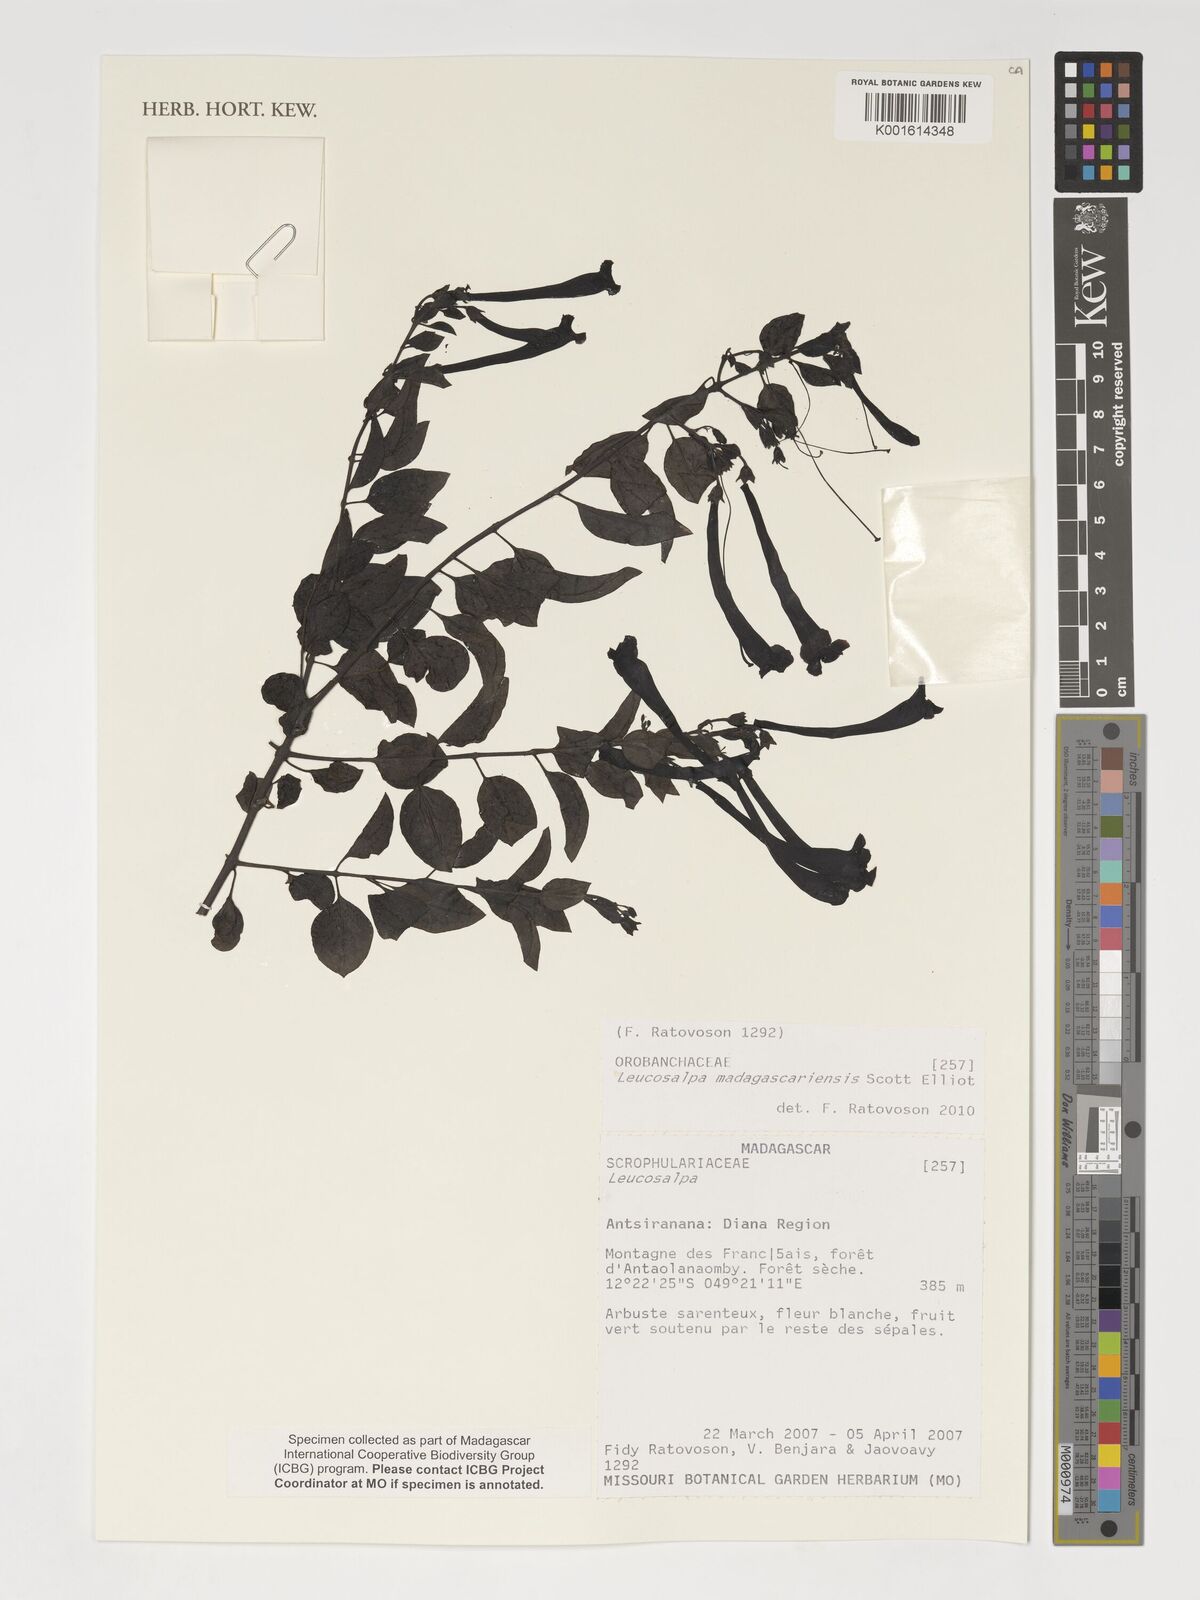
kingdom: Plantae
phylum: Tracheophyta
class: Magnoliopsida
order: Lamiales
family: Orobanchaceae
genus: Leucosalpa
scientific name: Leucosalpa madagascariensis
